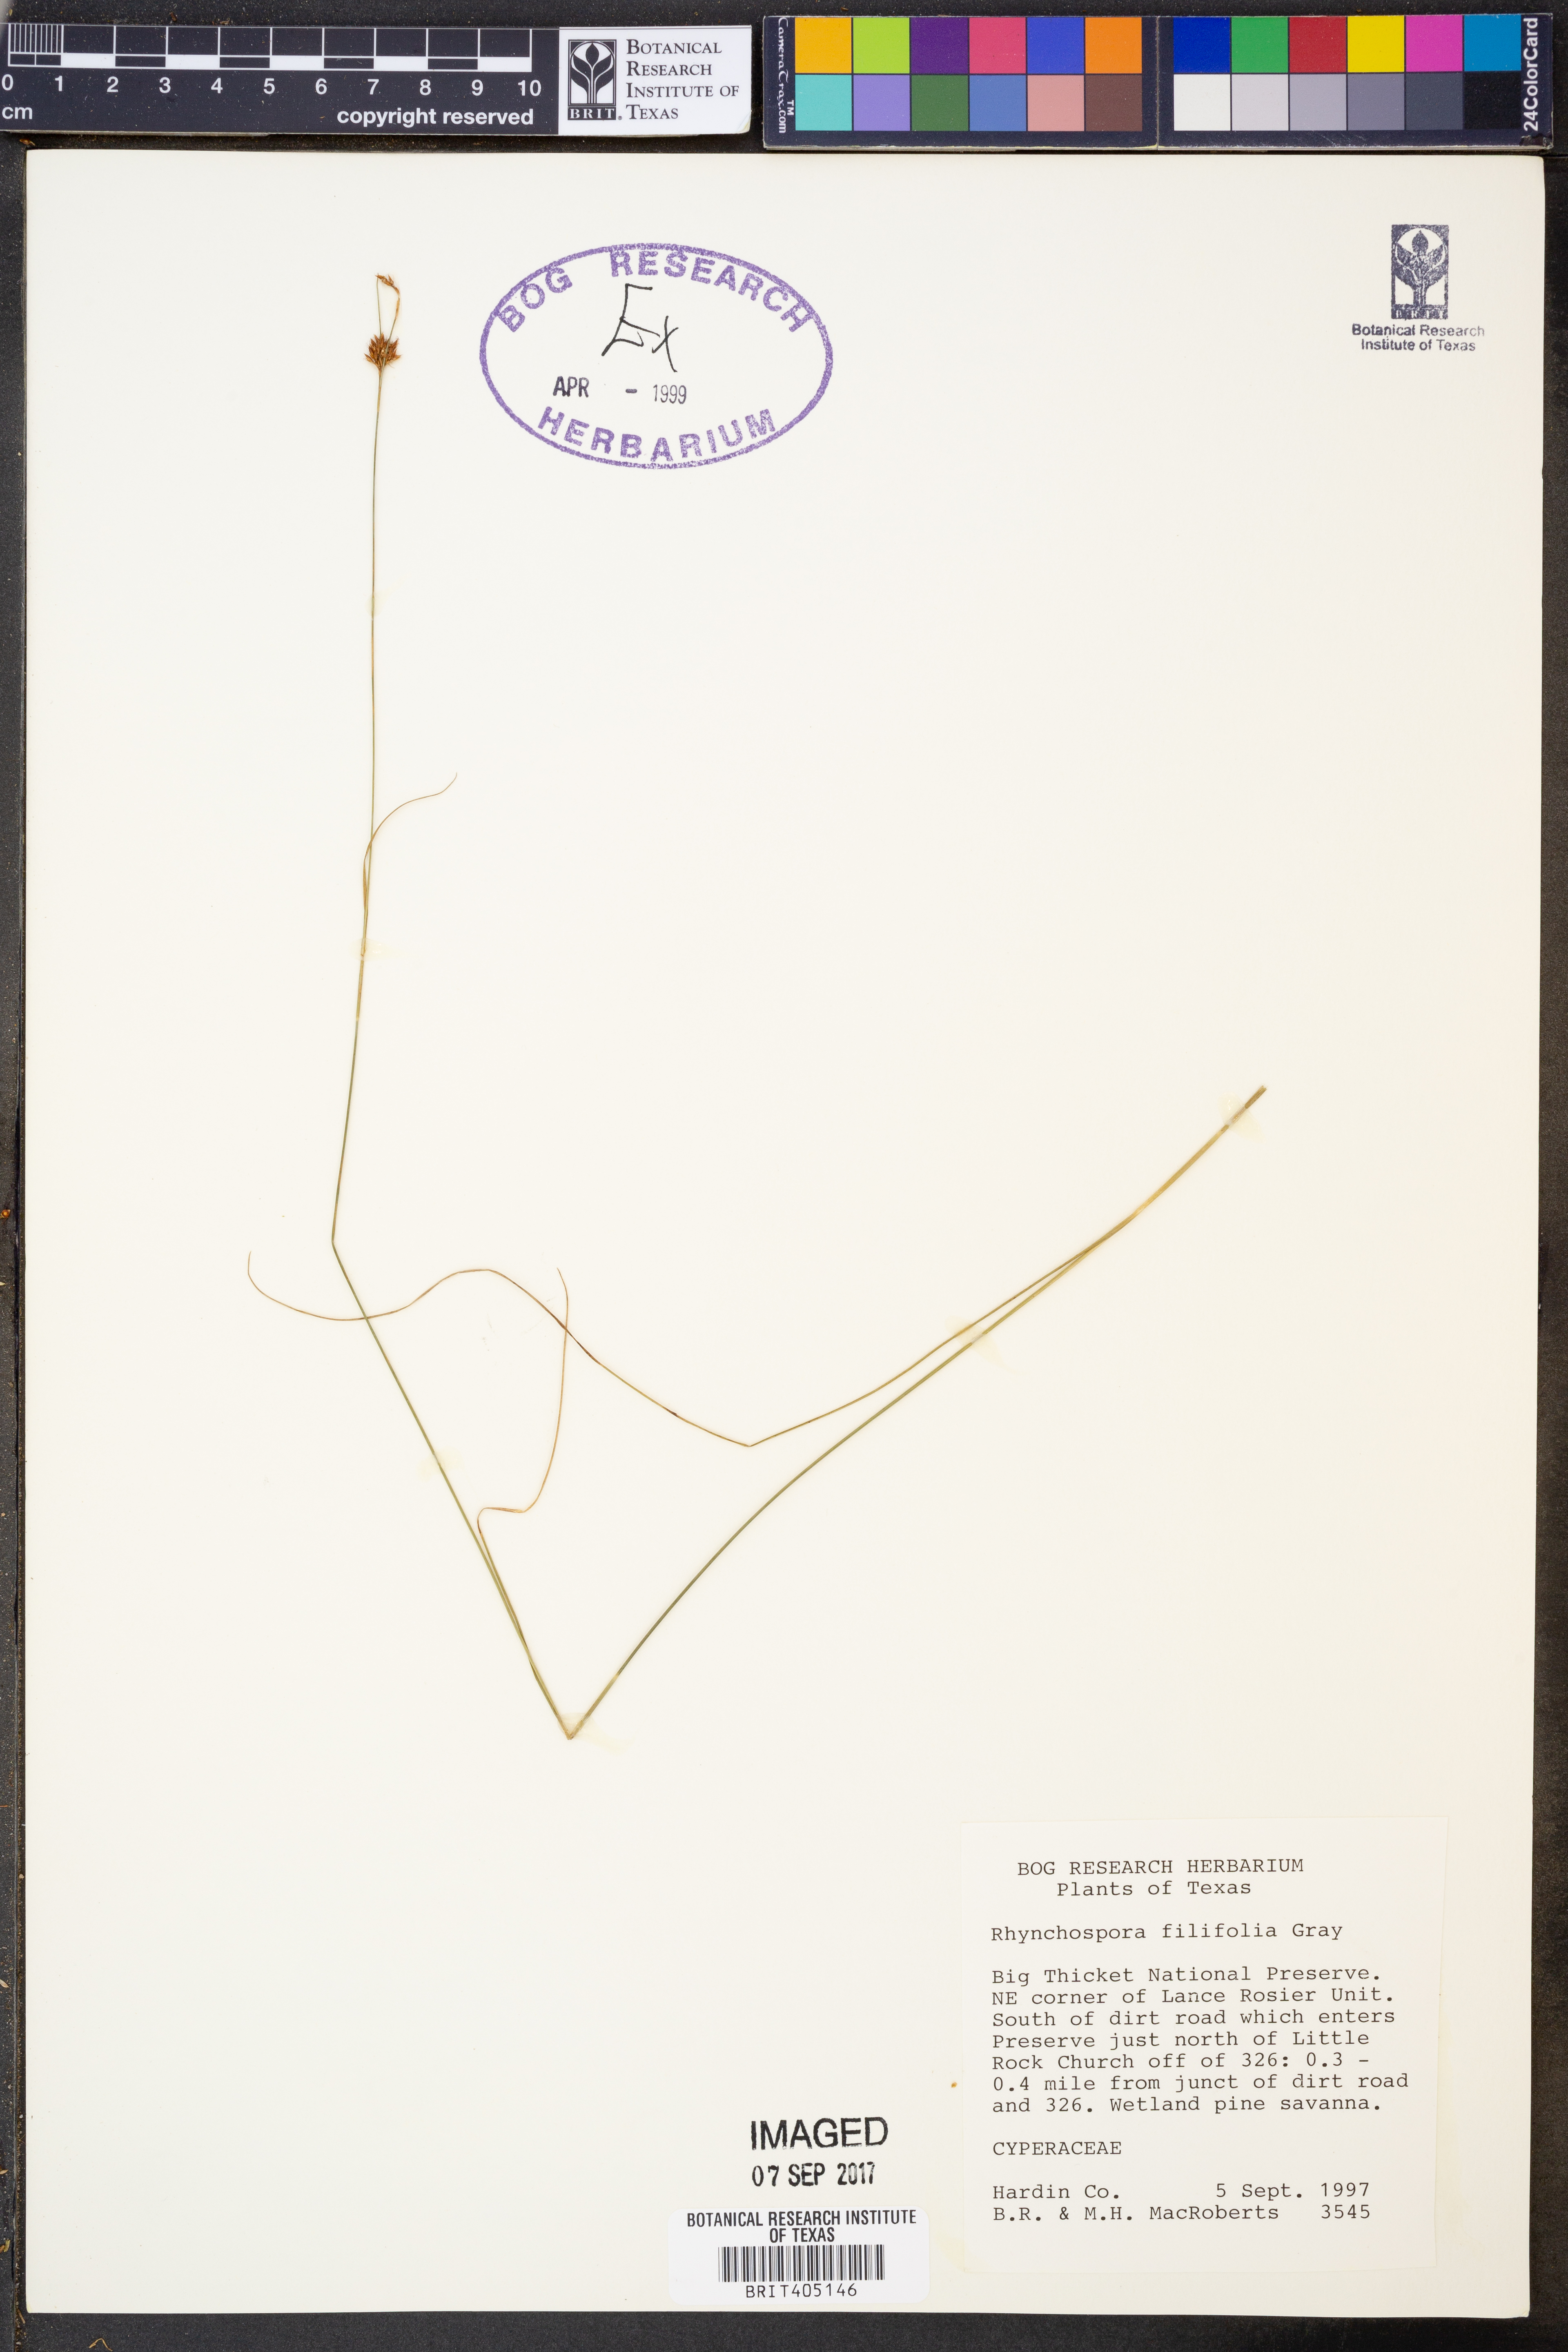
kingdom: Plantae
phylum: Tracheophyta
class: Liliopsida
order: Poales
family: Cyperaceae
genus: Rhynchospora
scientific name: Rhynchospora filifolia
